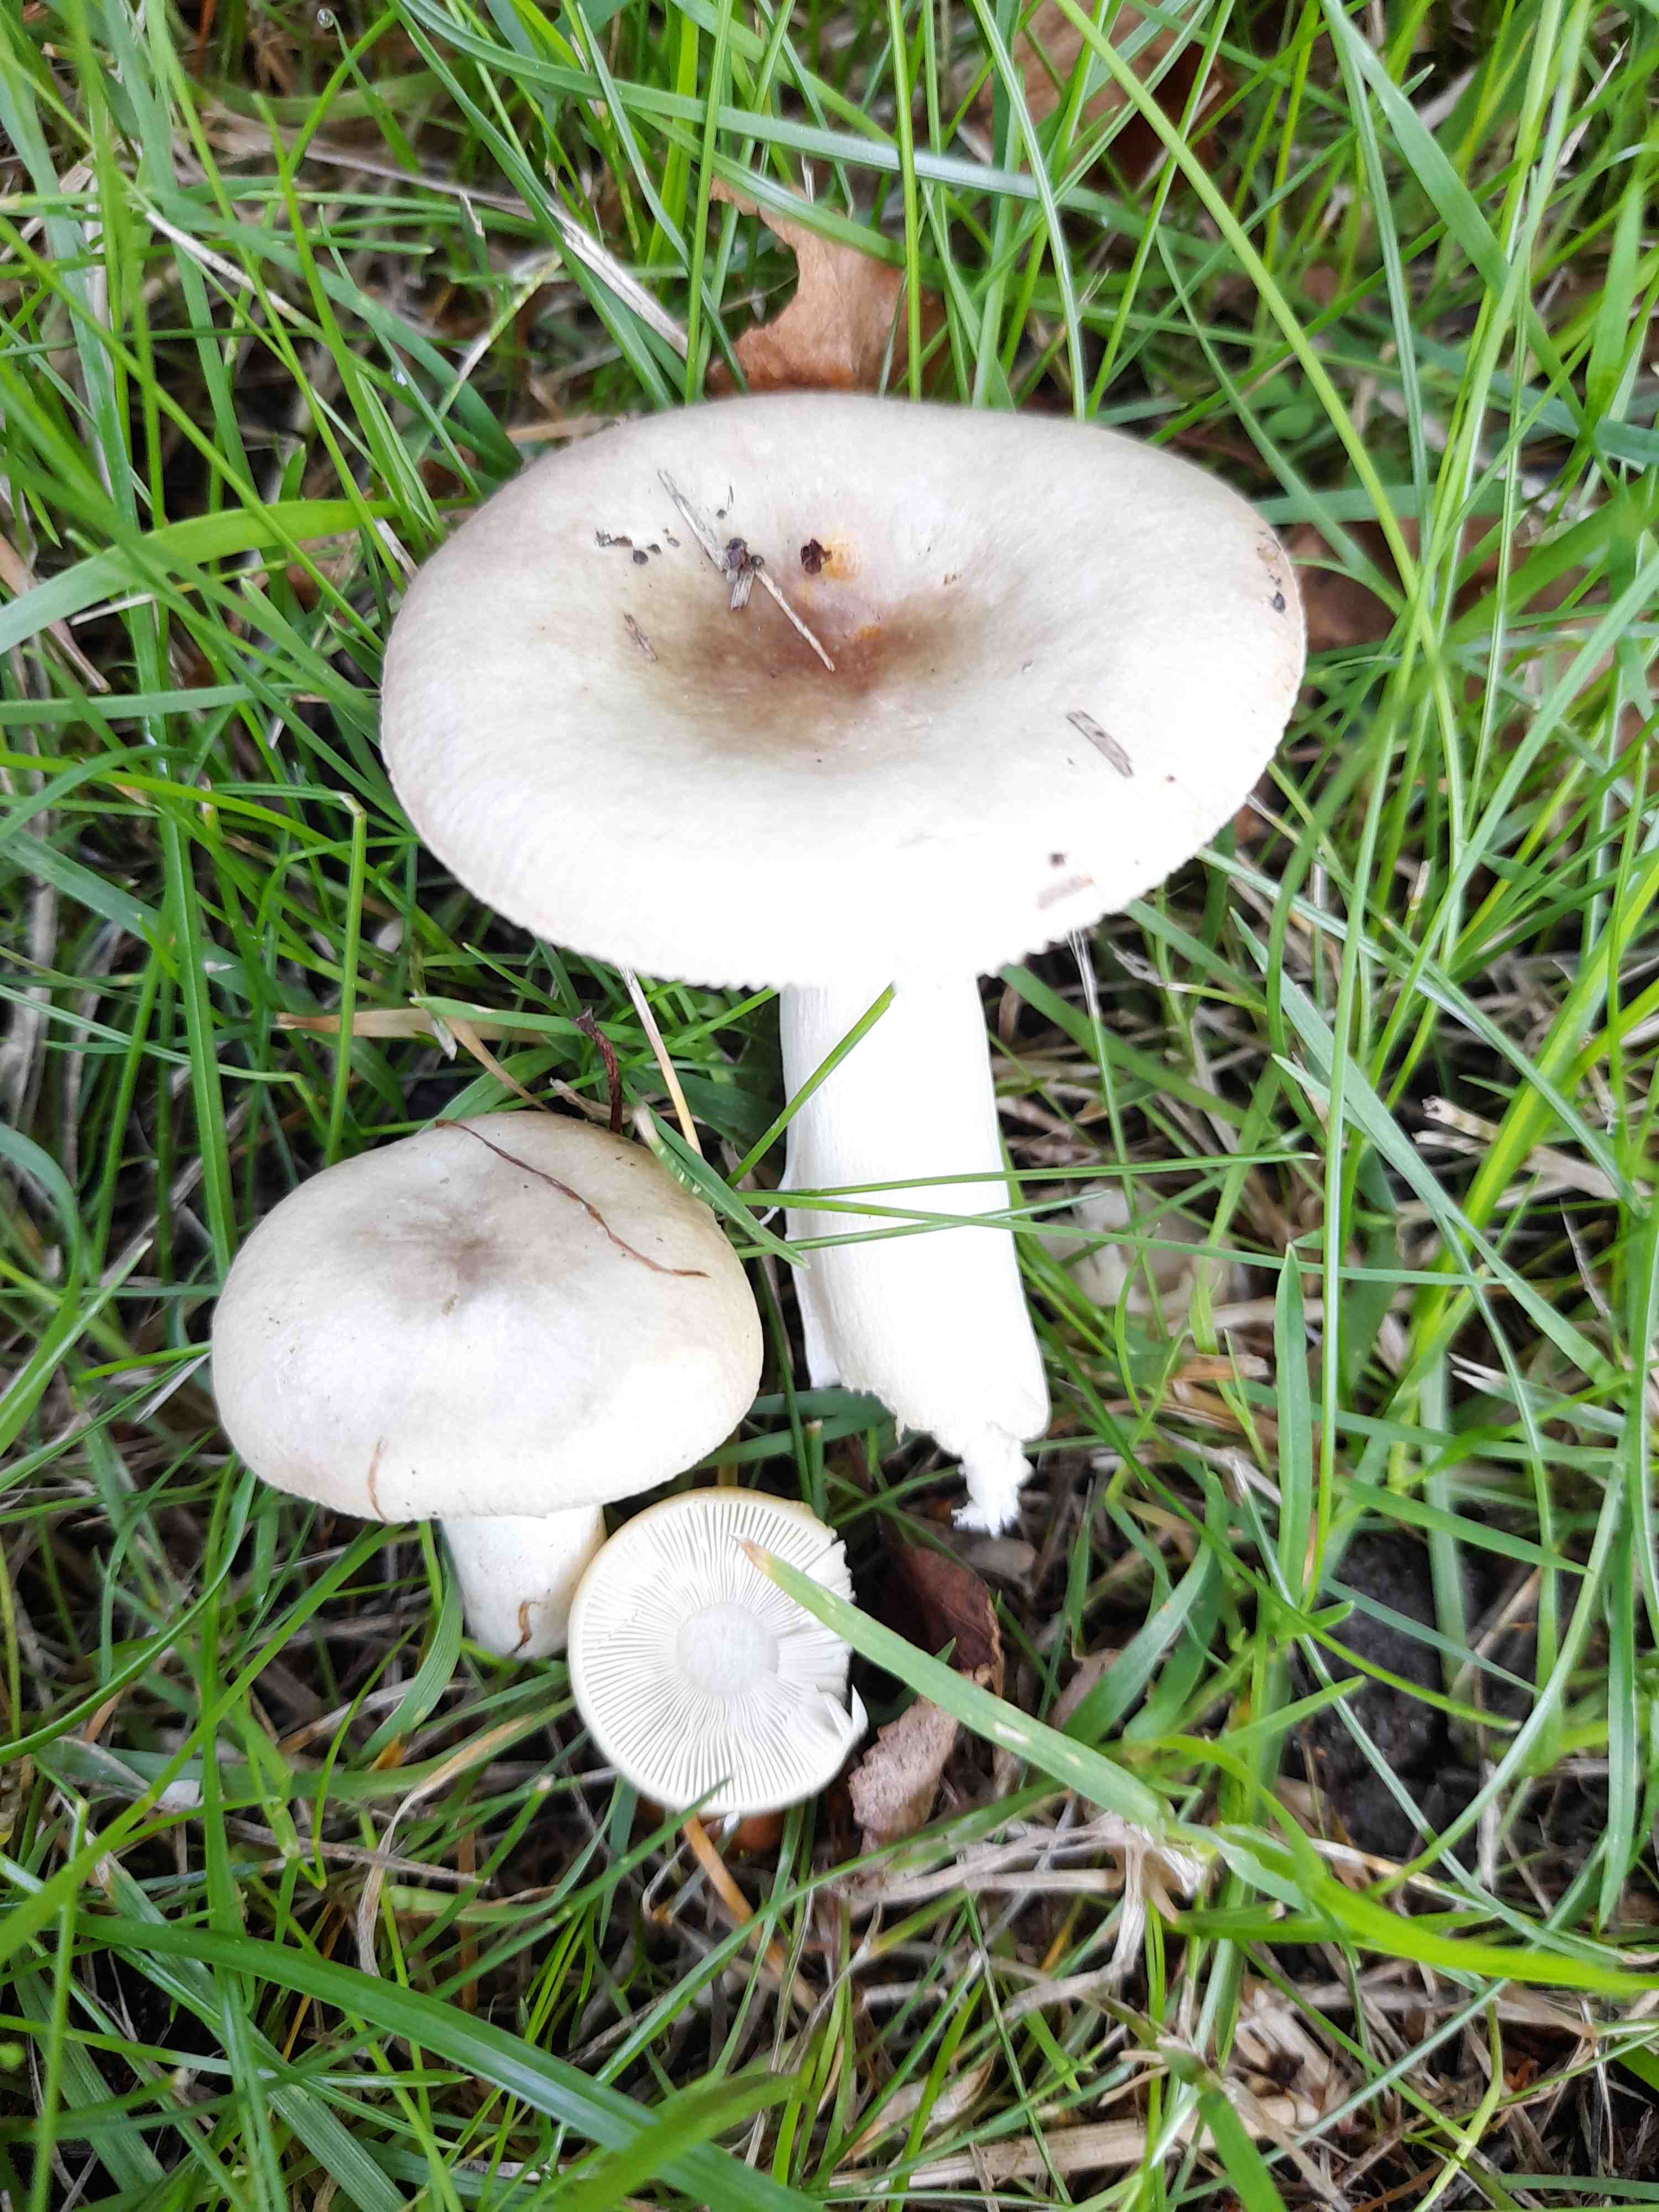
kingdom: Fungi
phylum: Basidiomycota
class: Agaricomycetes
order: Russulales
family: Russulaceae
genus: Russula
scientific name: Russula depallens
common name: falmende skørhat
